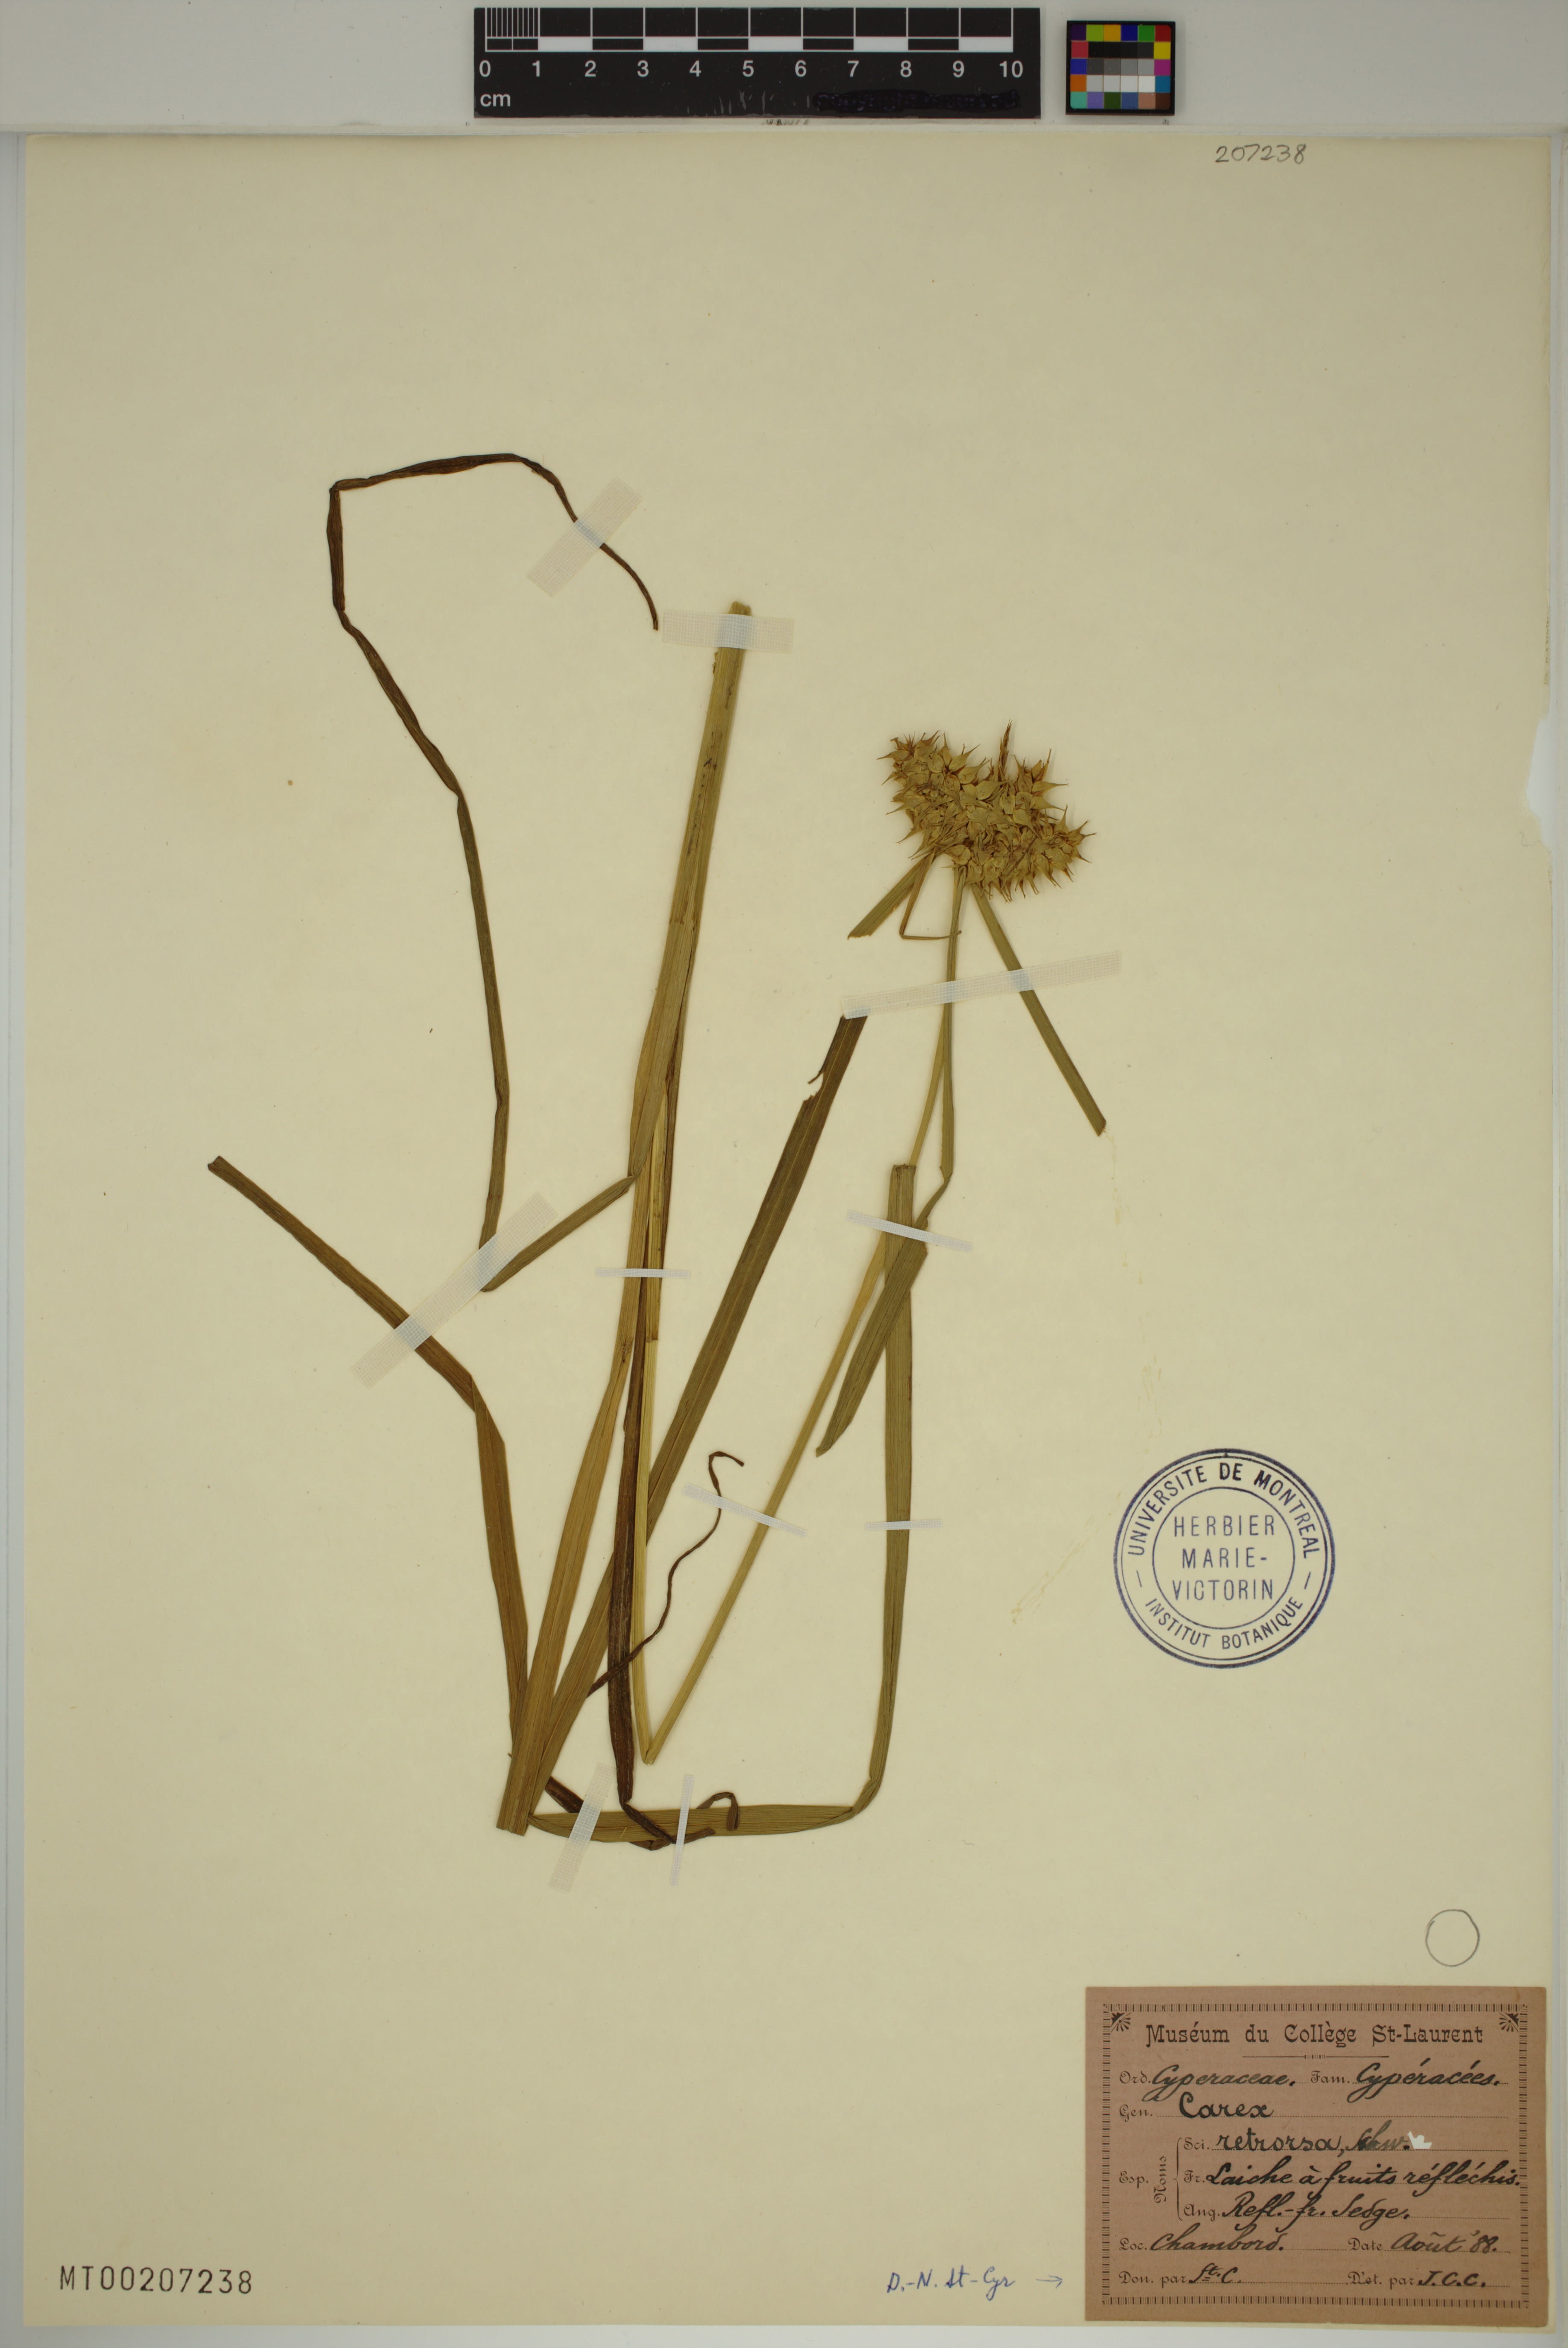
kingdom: Plantae
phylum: Tracheophyta
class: Liliopsida
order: Poales
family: Cyperaceae
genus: Carex
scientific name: Carex retrorsa
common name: Knot-sheath sedge
